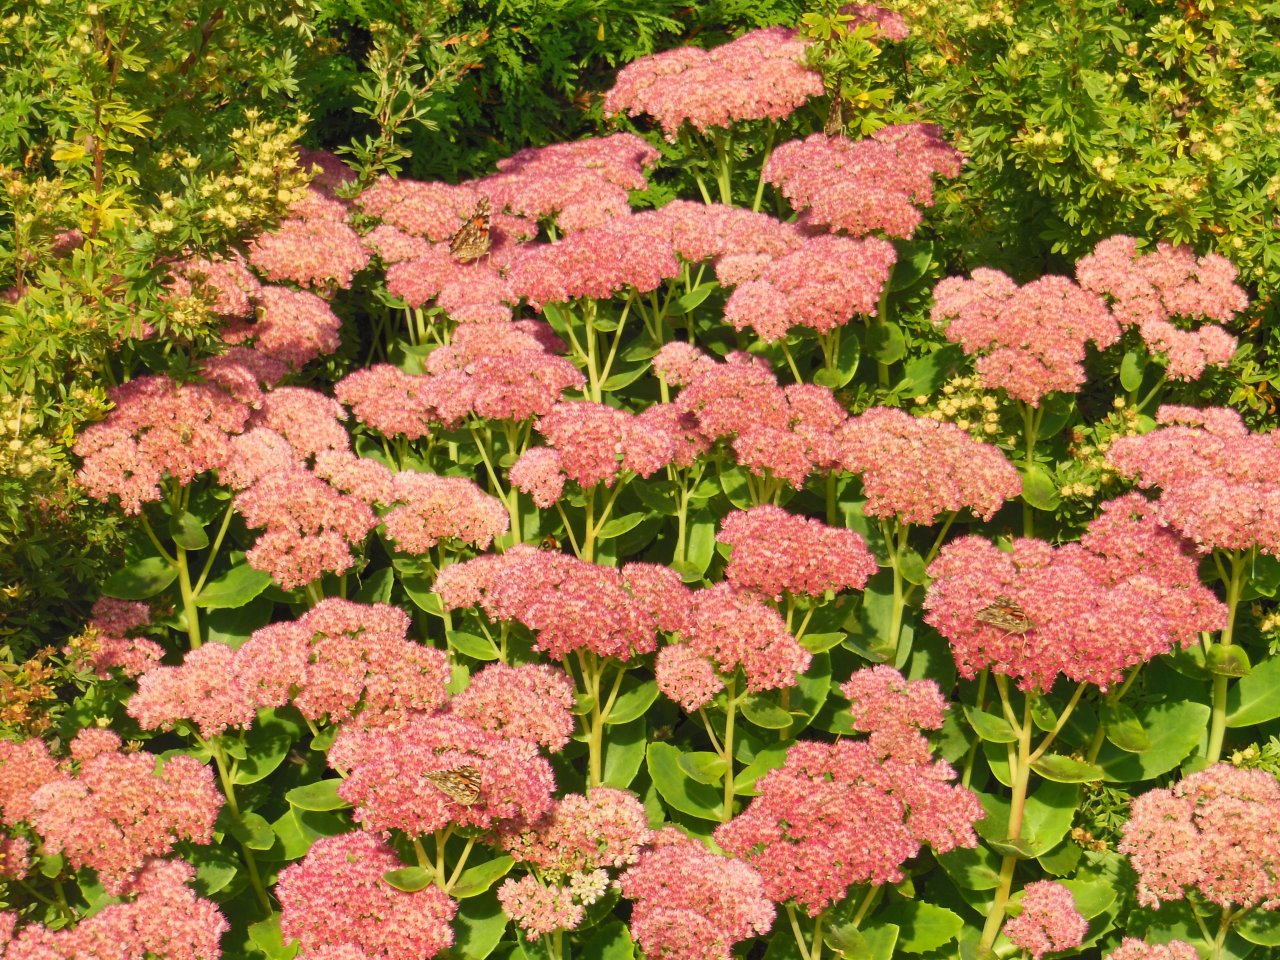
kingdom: Animalia
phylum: Arthropoda
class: Insecta
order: Lepidoptera
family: Nymphalidae
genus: Vanessa
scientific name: Vanessa cardui
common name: Painted Lady
